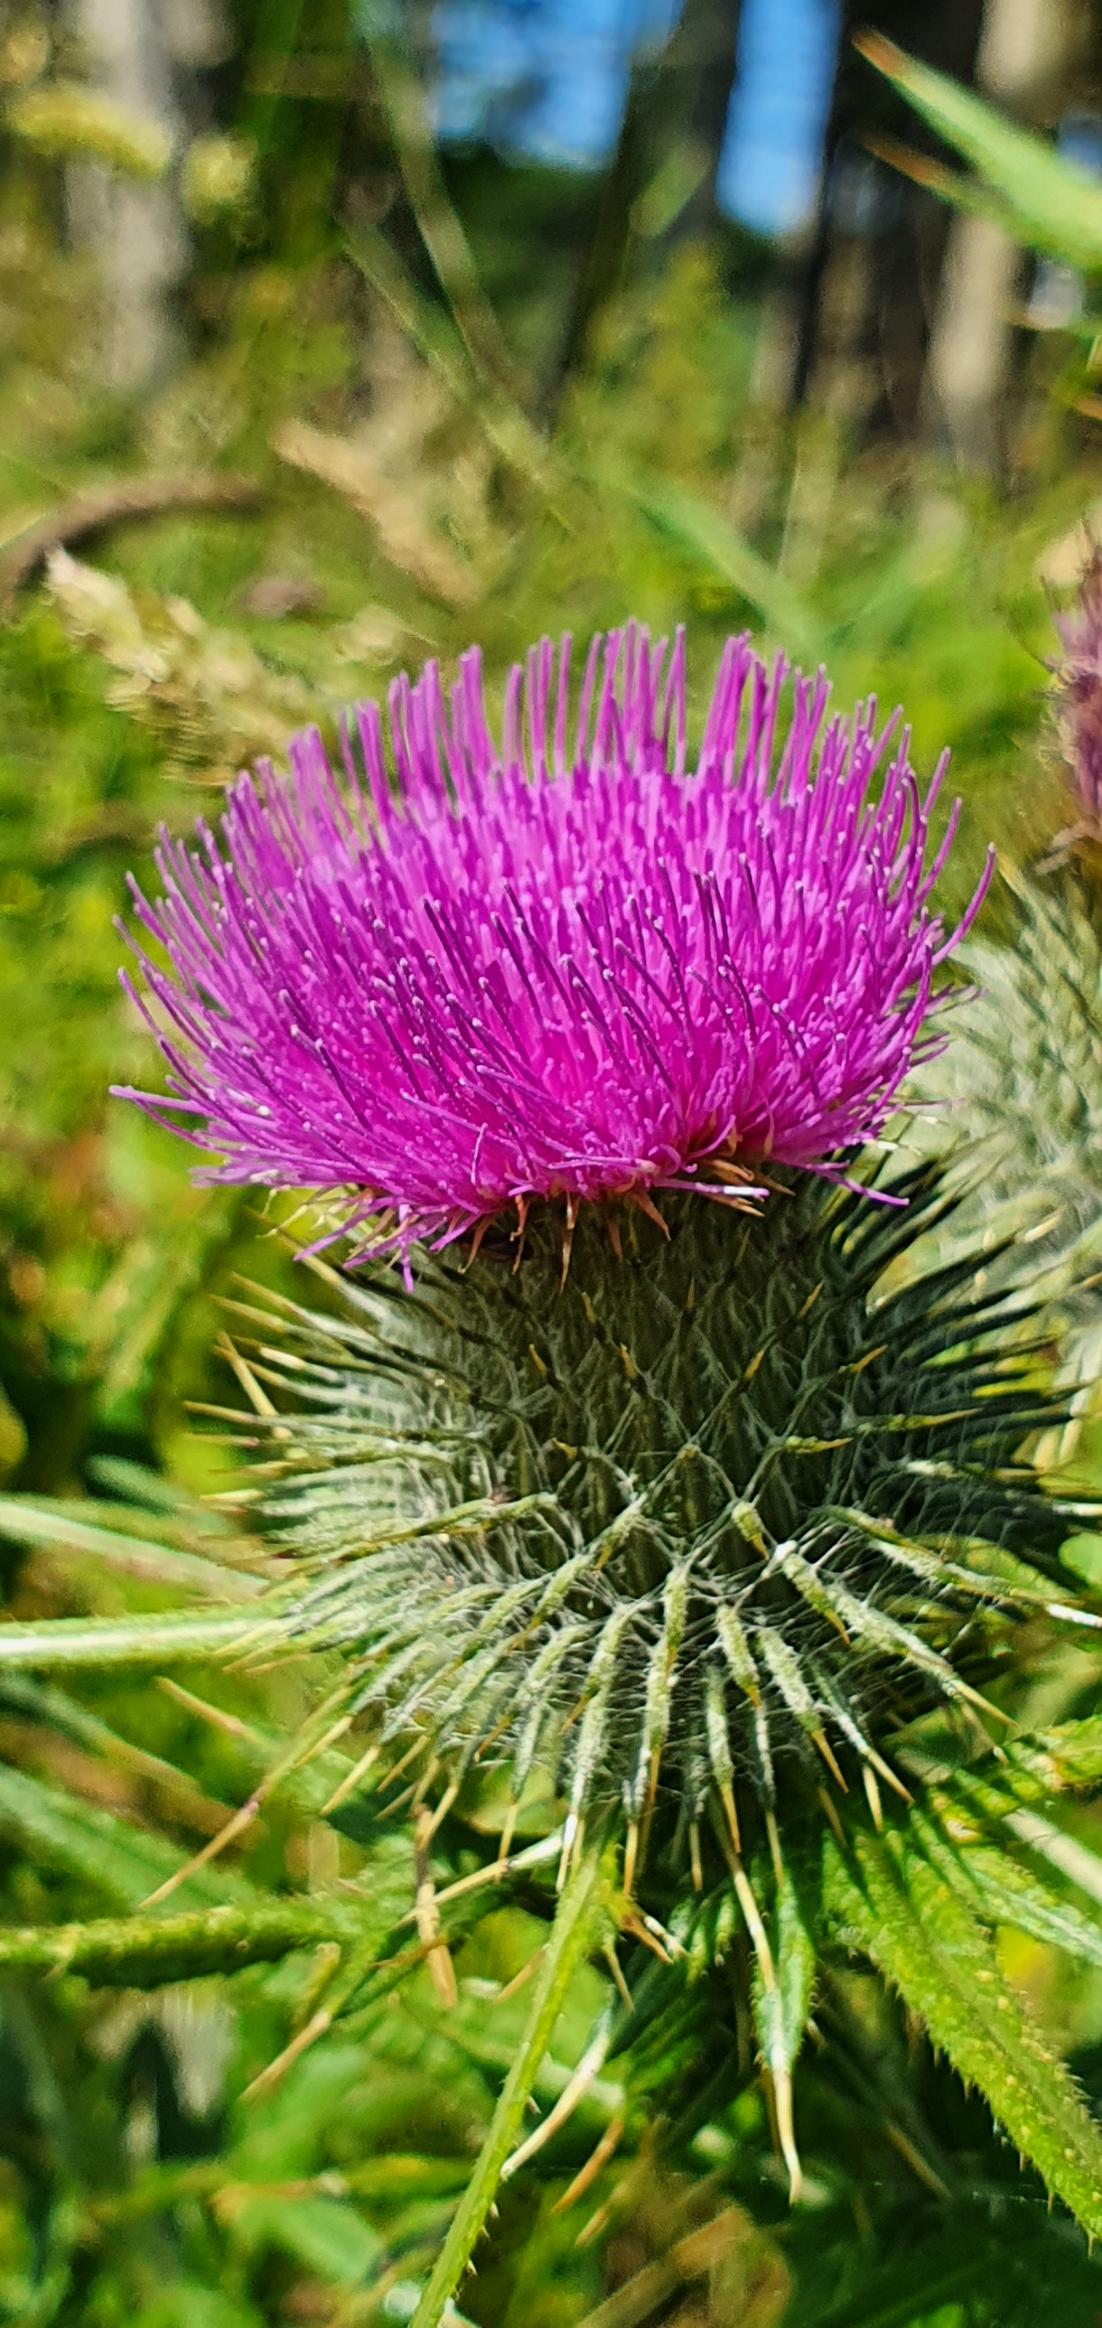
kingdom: Plantae
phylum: Tracheophyta
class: Magnoliopsida
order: Asterales
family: Asteraceae
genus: Cirsium
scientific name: Cirsium vulgare
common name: Horse-tidsel
